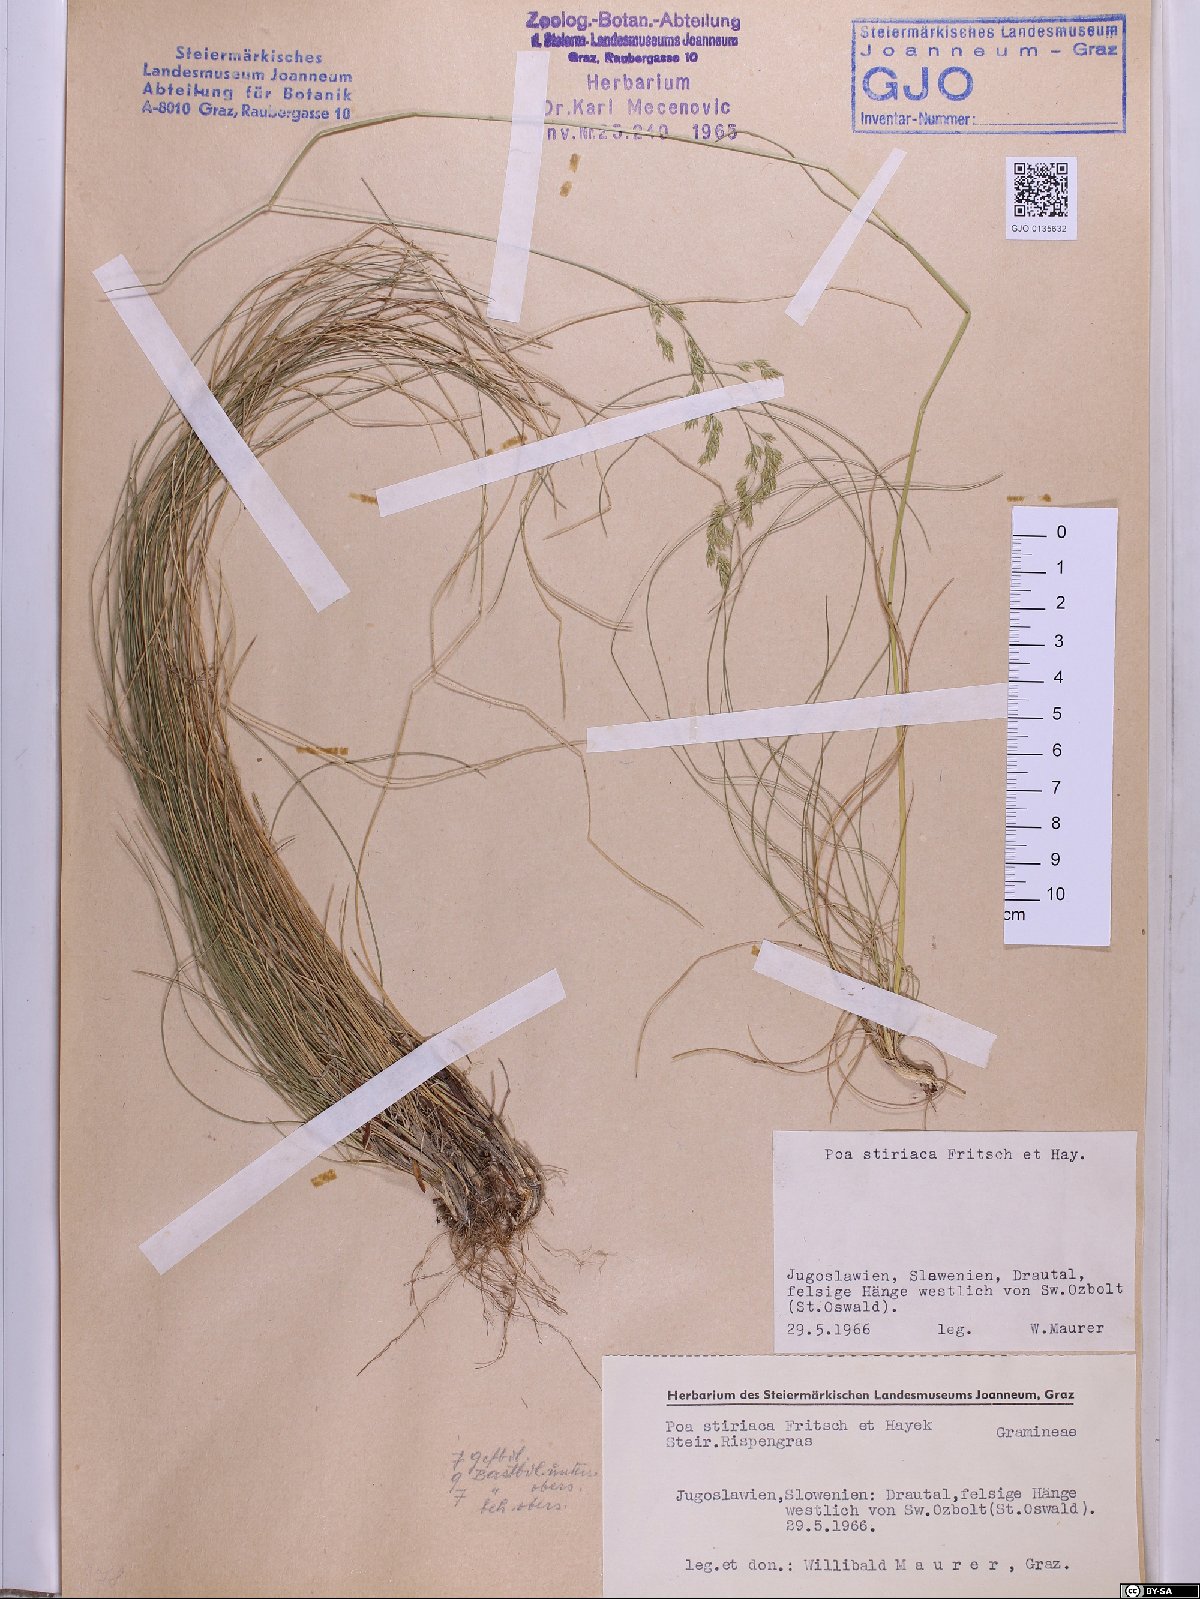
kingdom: Plantae
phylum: Tracheophyta
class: Liliopsida
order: Poales
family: Poaceae
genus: Poa
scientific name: Poa stiriaca
